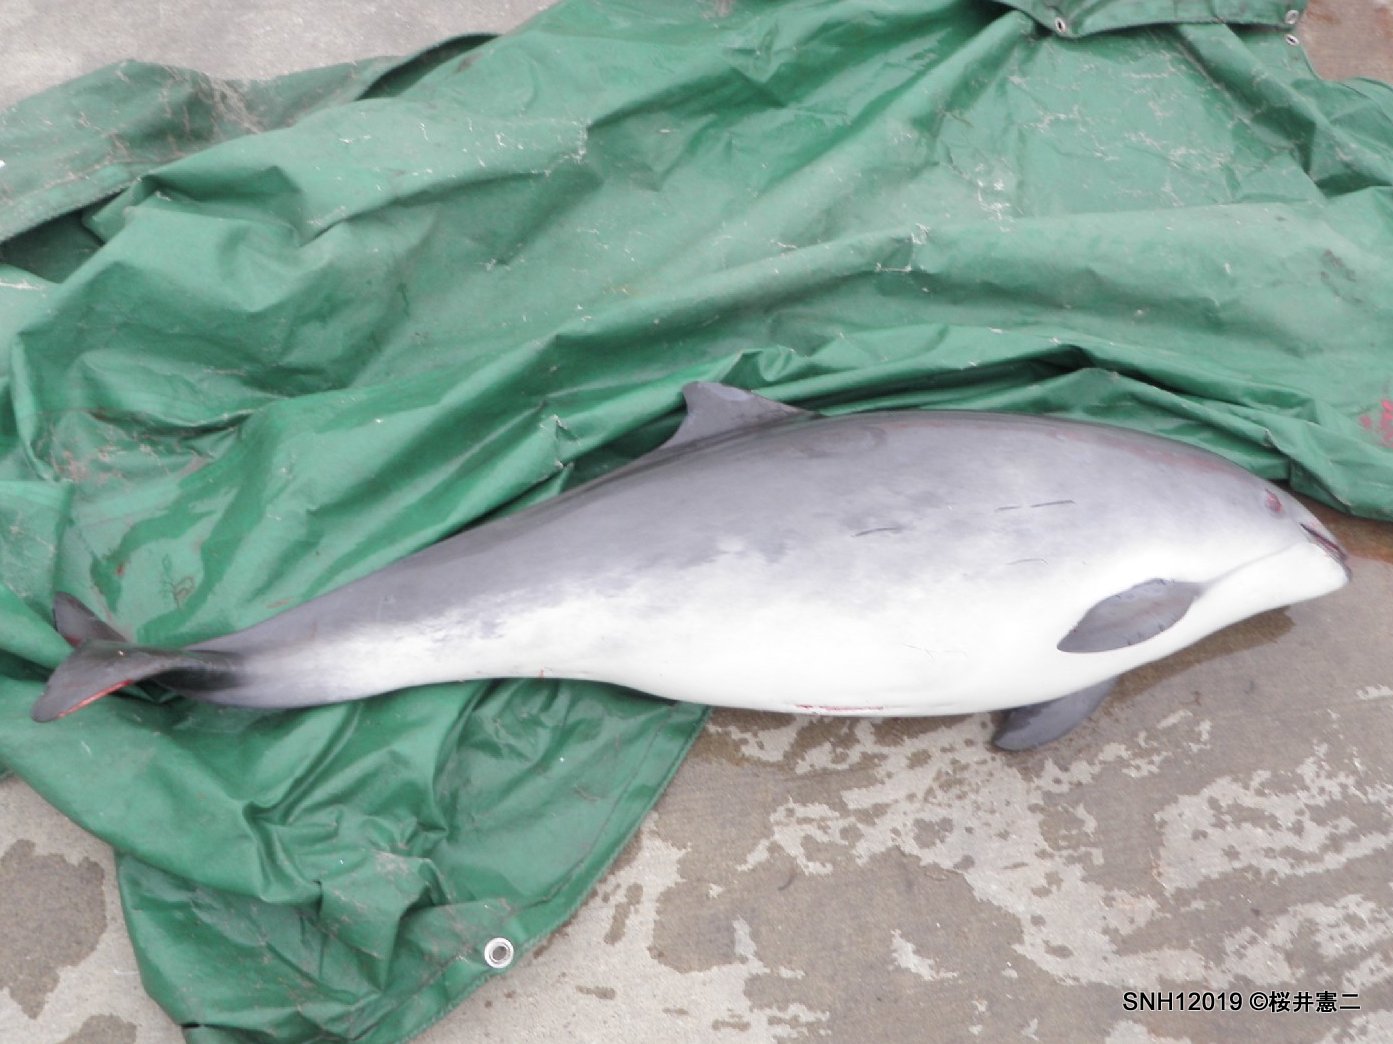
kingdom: Animalia
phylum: Chordata
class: Mammalia
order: Cetacea
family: Phocoenidae
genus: Phocoena
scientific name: Phocoena phocoena
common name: Harbour porpoise
